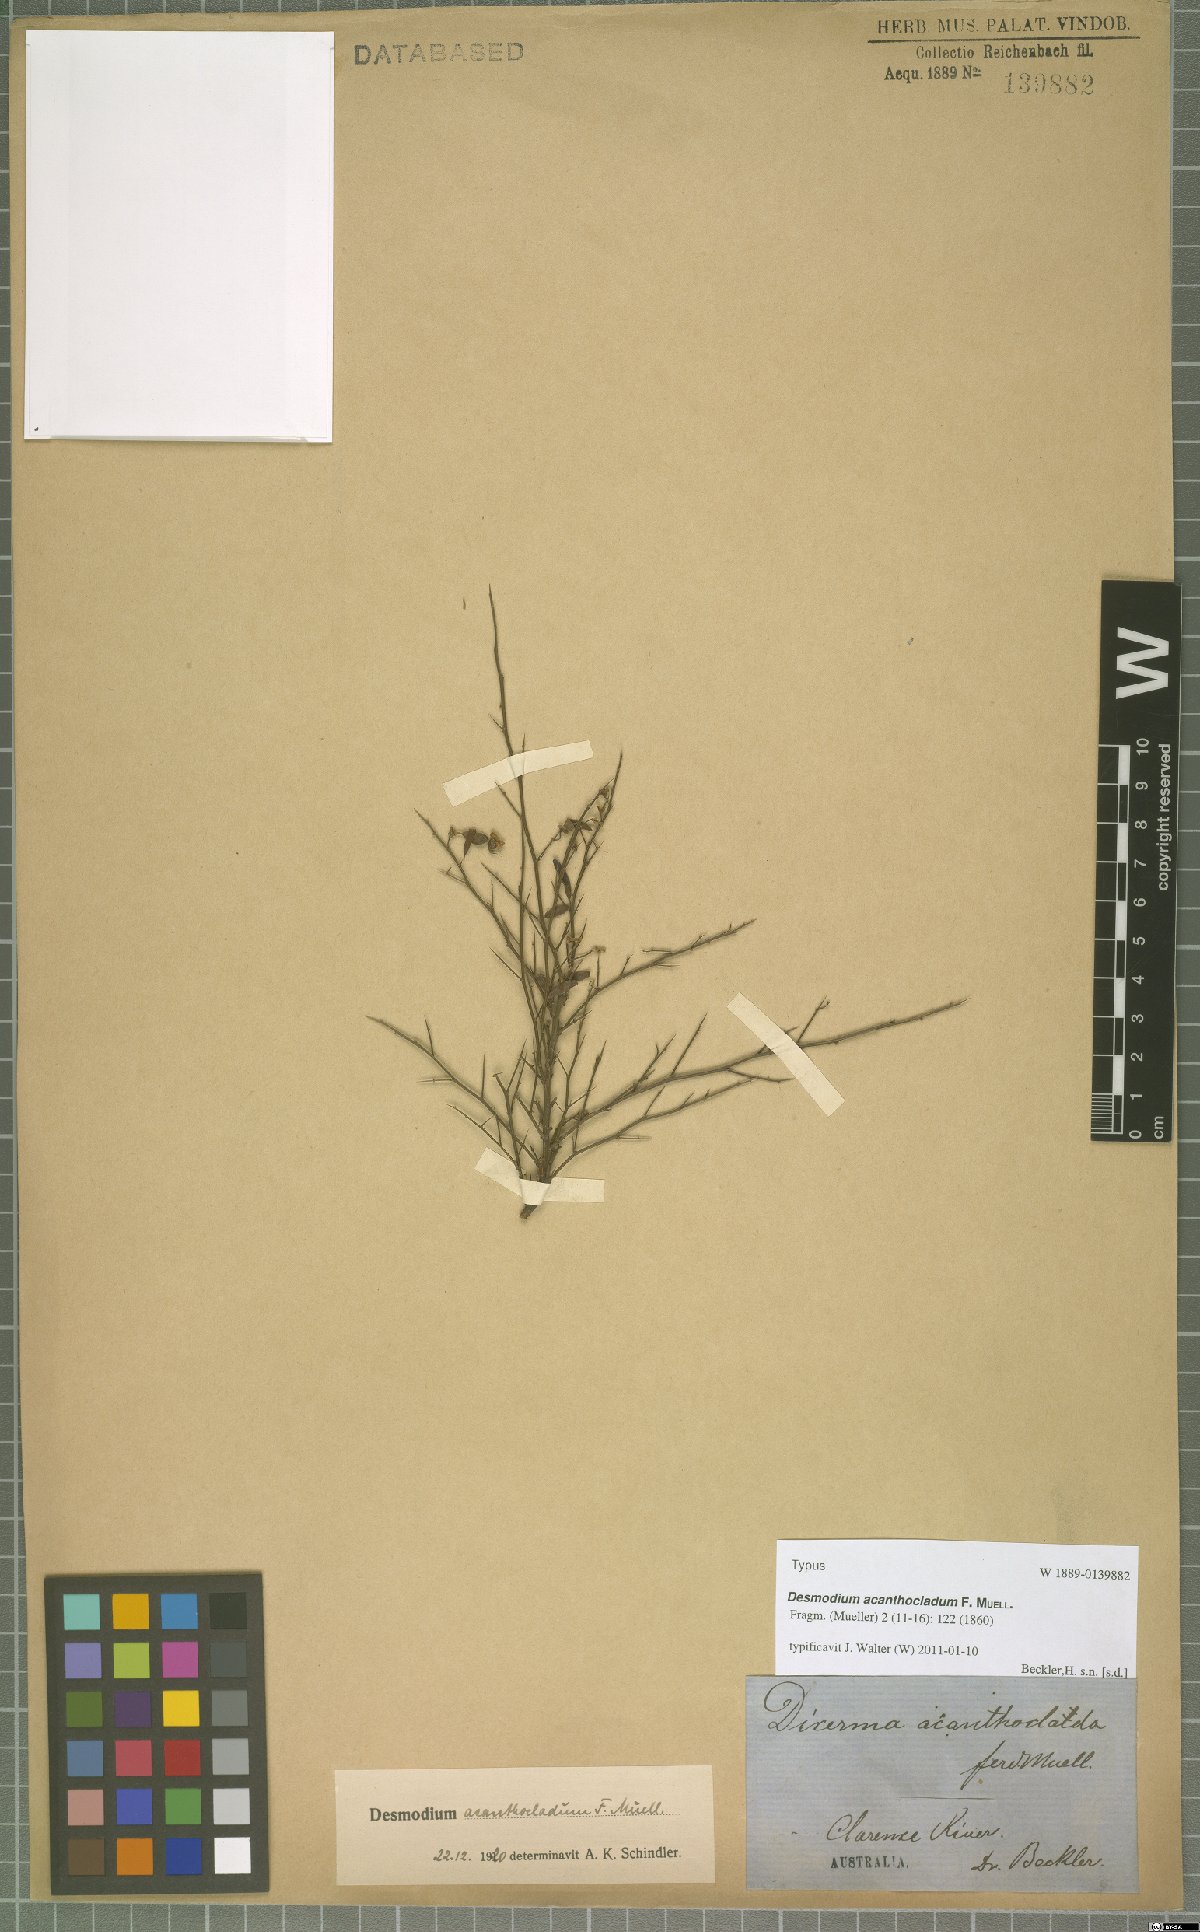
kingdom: Plantae
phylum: Tracheophyta
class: Magnoliopsida
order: Fabales
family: Fabaceae
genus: Pedleya
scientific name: Pedleya acanthoclada
